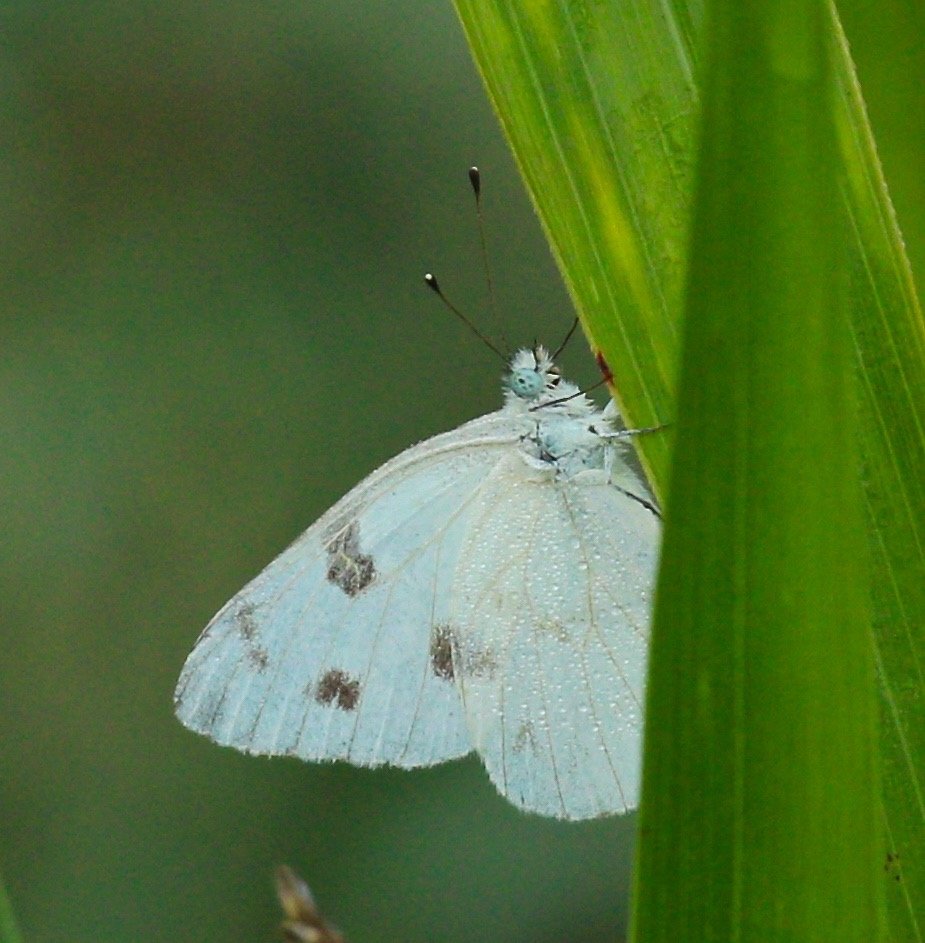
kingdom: Animalia
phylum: Arthropoda
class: Insecta
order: Lepidoptera
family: Pieridae
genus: Pontia
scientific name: Pontia protodice
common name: Checkered White
